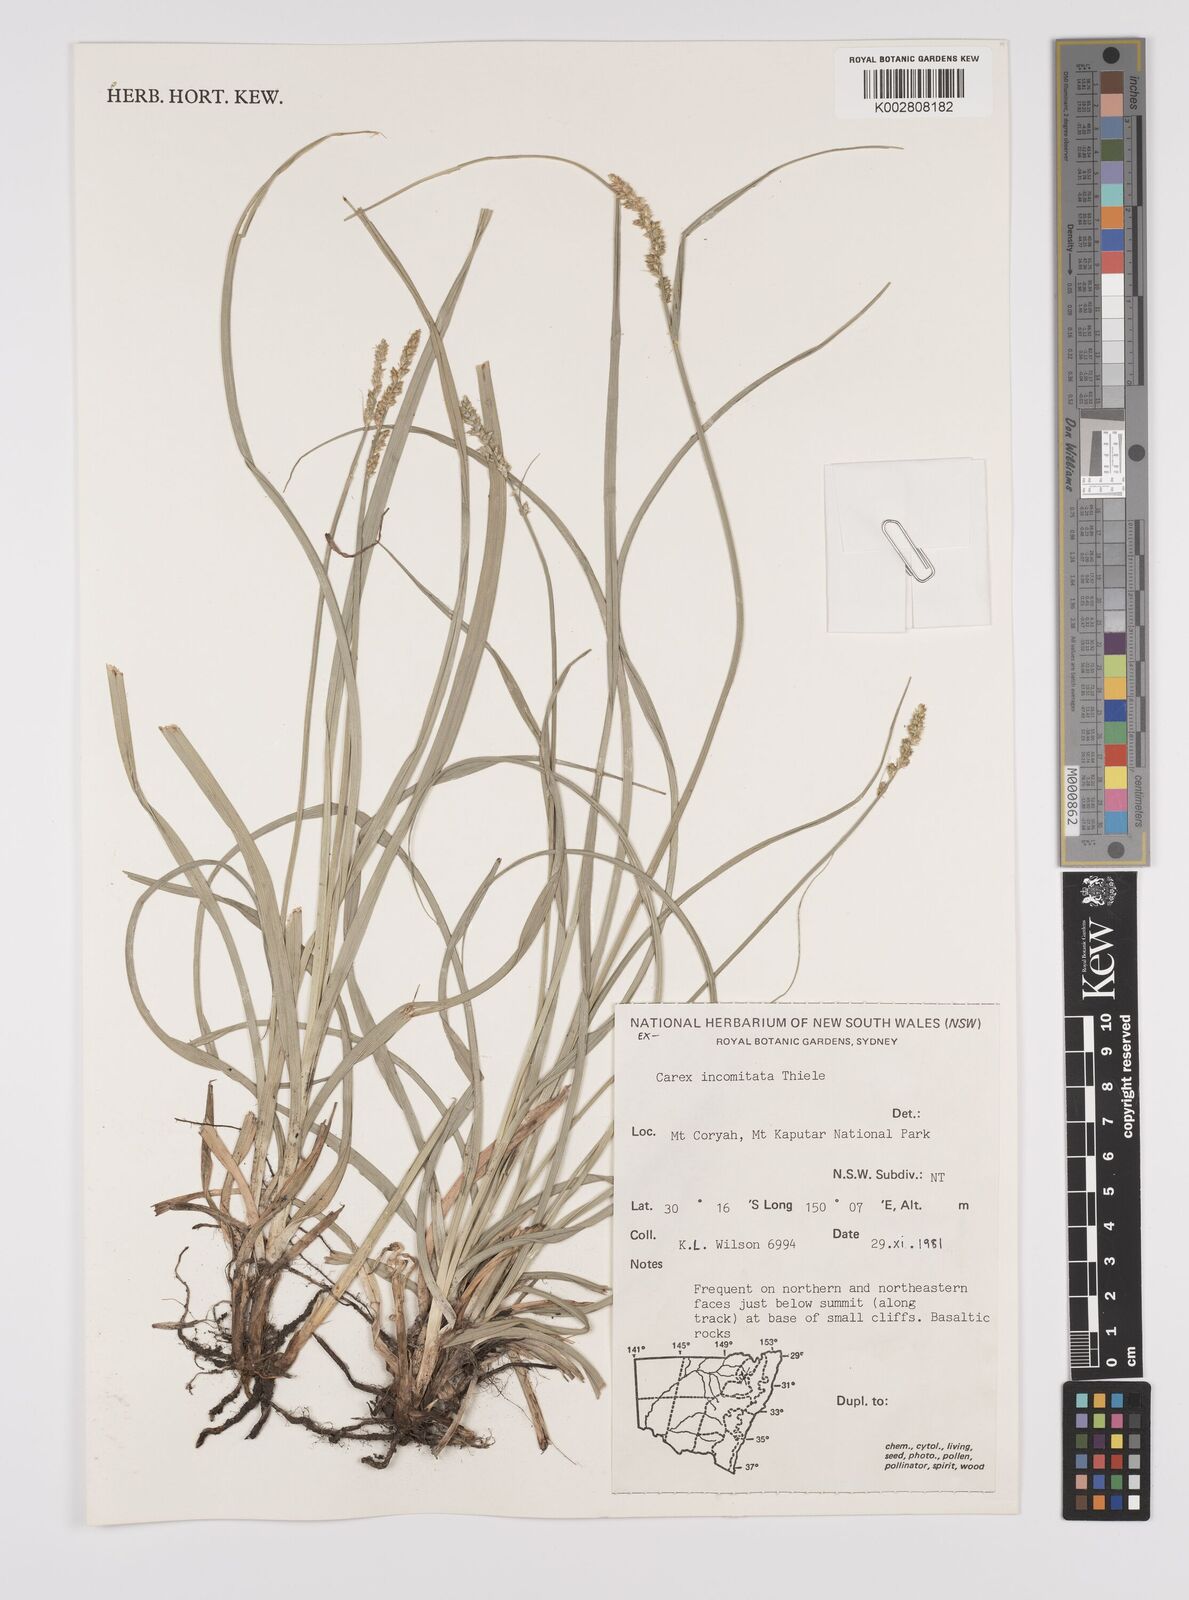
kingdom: Plantae
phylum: Tracheophyta
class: Liliopsida
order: Poales
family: Cyperaceae
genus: Carex
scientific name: Carex incomitata
